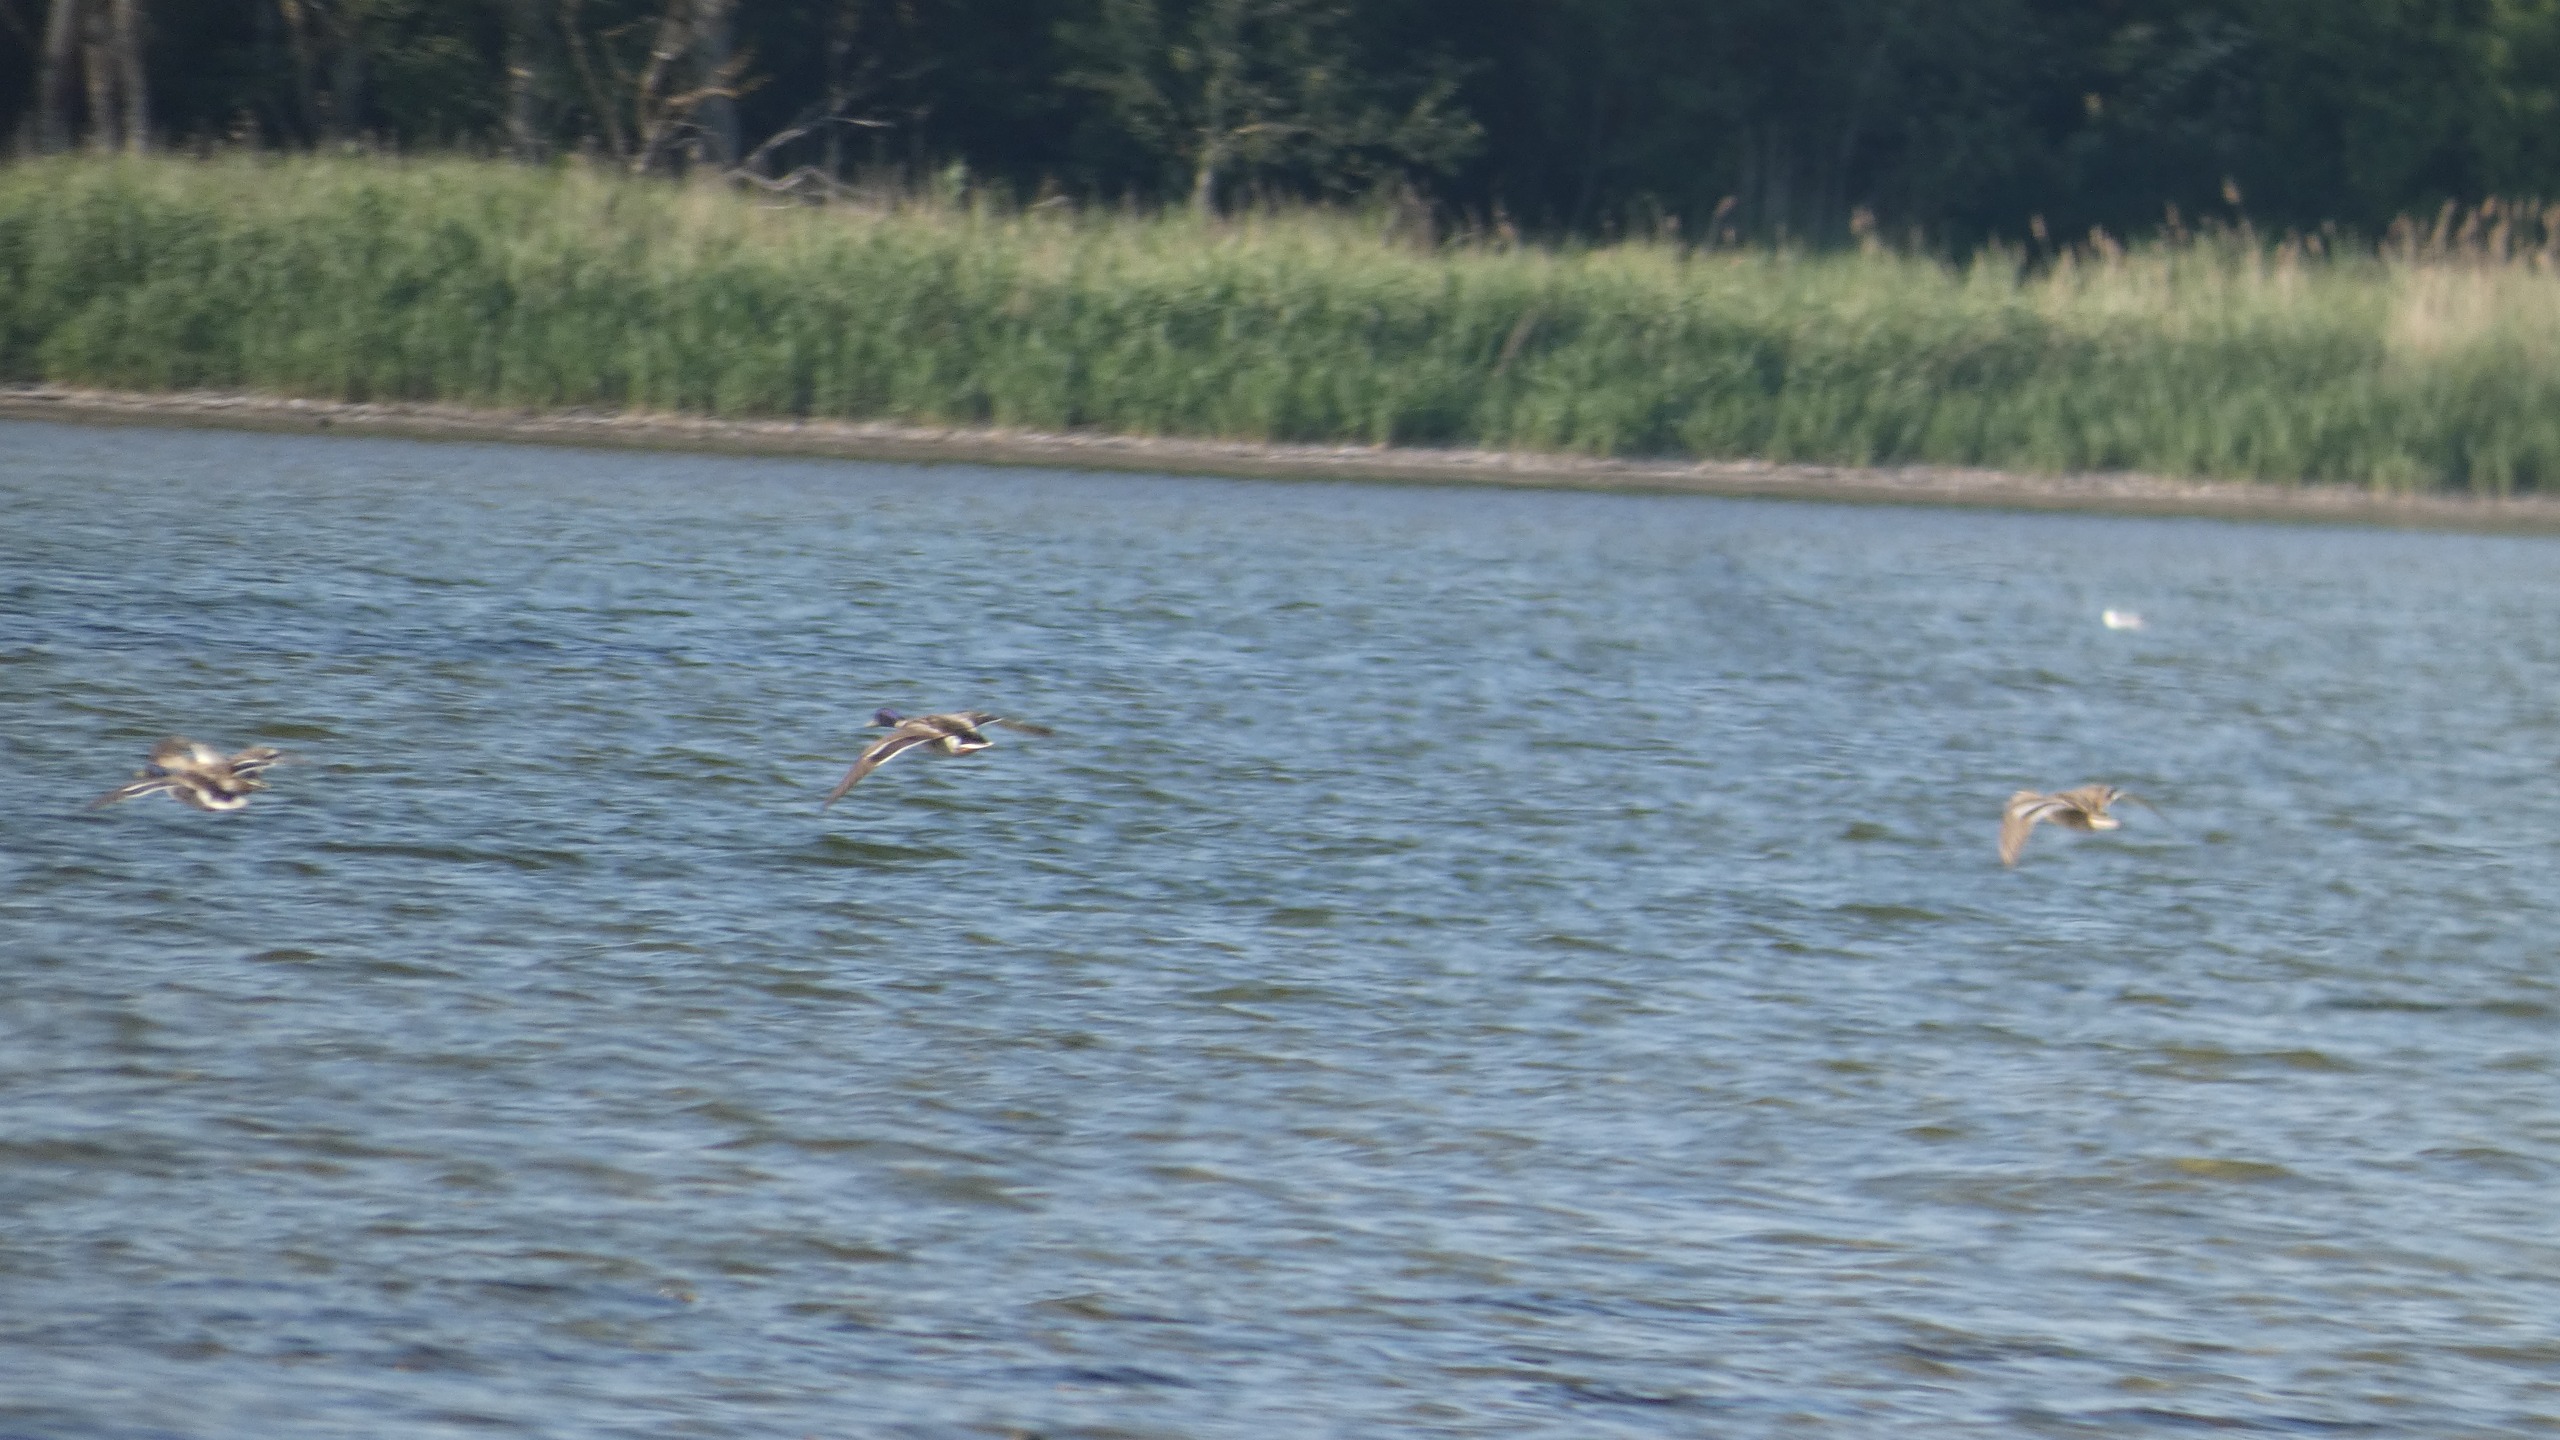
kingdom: Animalia
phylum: Chordata
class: Aves
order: Anseriformes
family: Anatidae
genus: Anas
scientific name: Anas platyrhynchos
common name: Gråand
